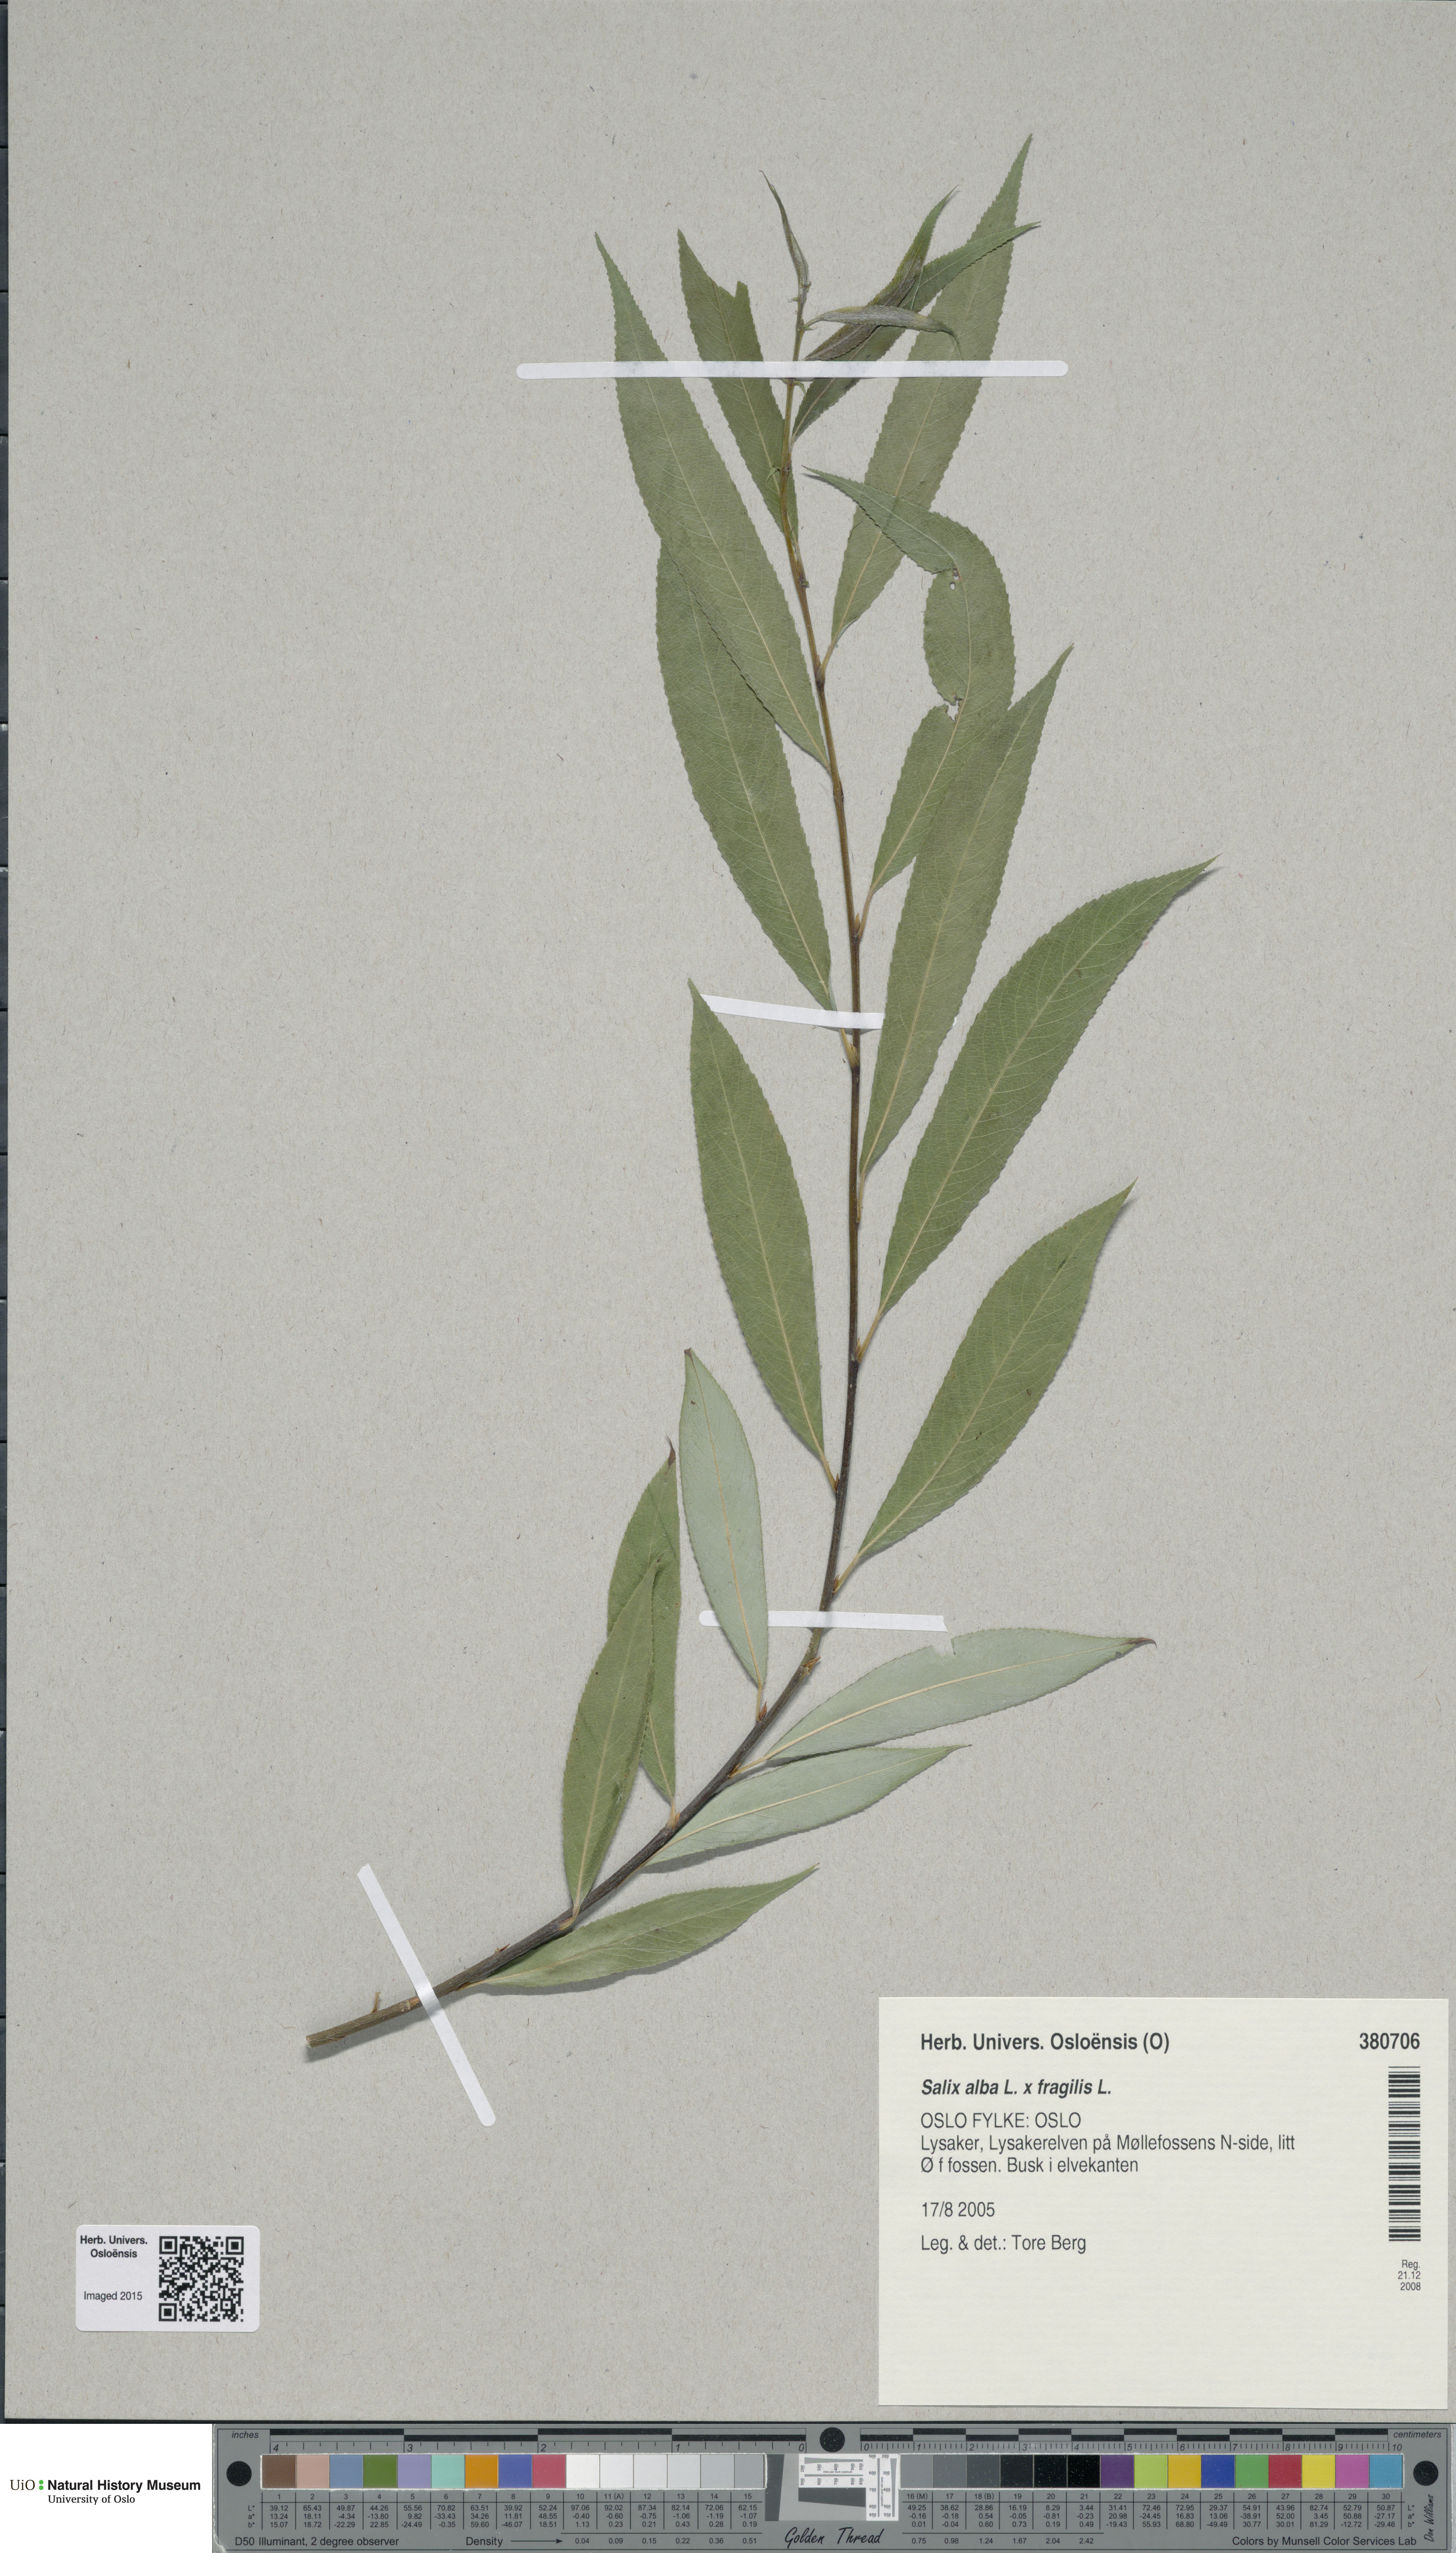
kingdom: Plantae
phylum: Tracheophyta
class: Magnoliopsida
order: Malpighiales
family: Salicaceae
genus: Salix
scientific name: Salix
